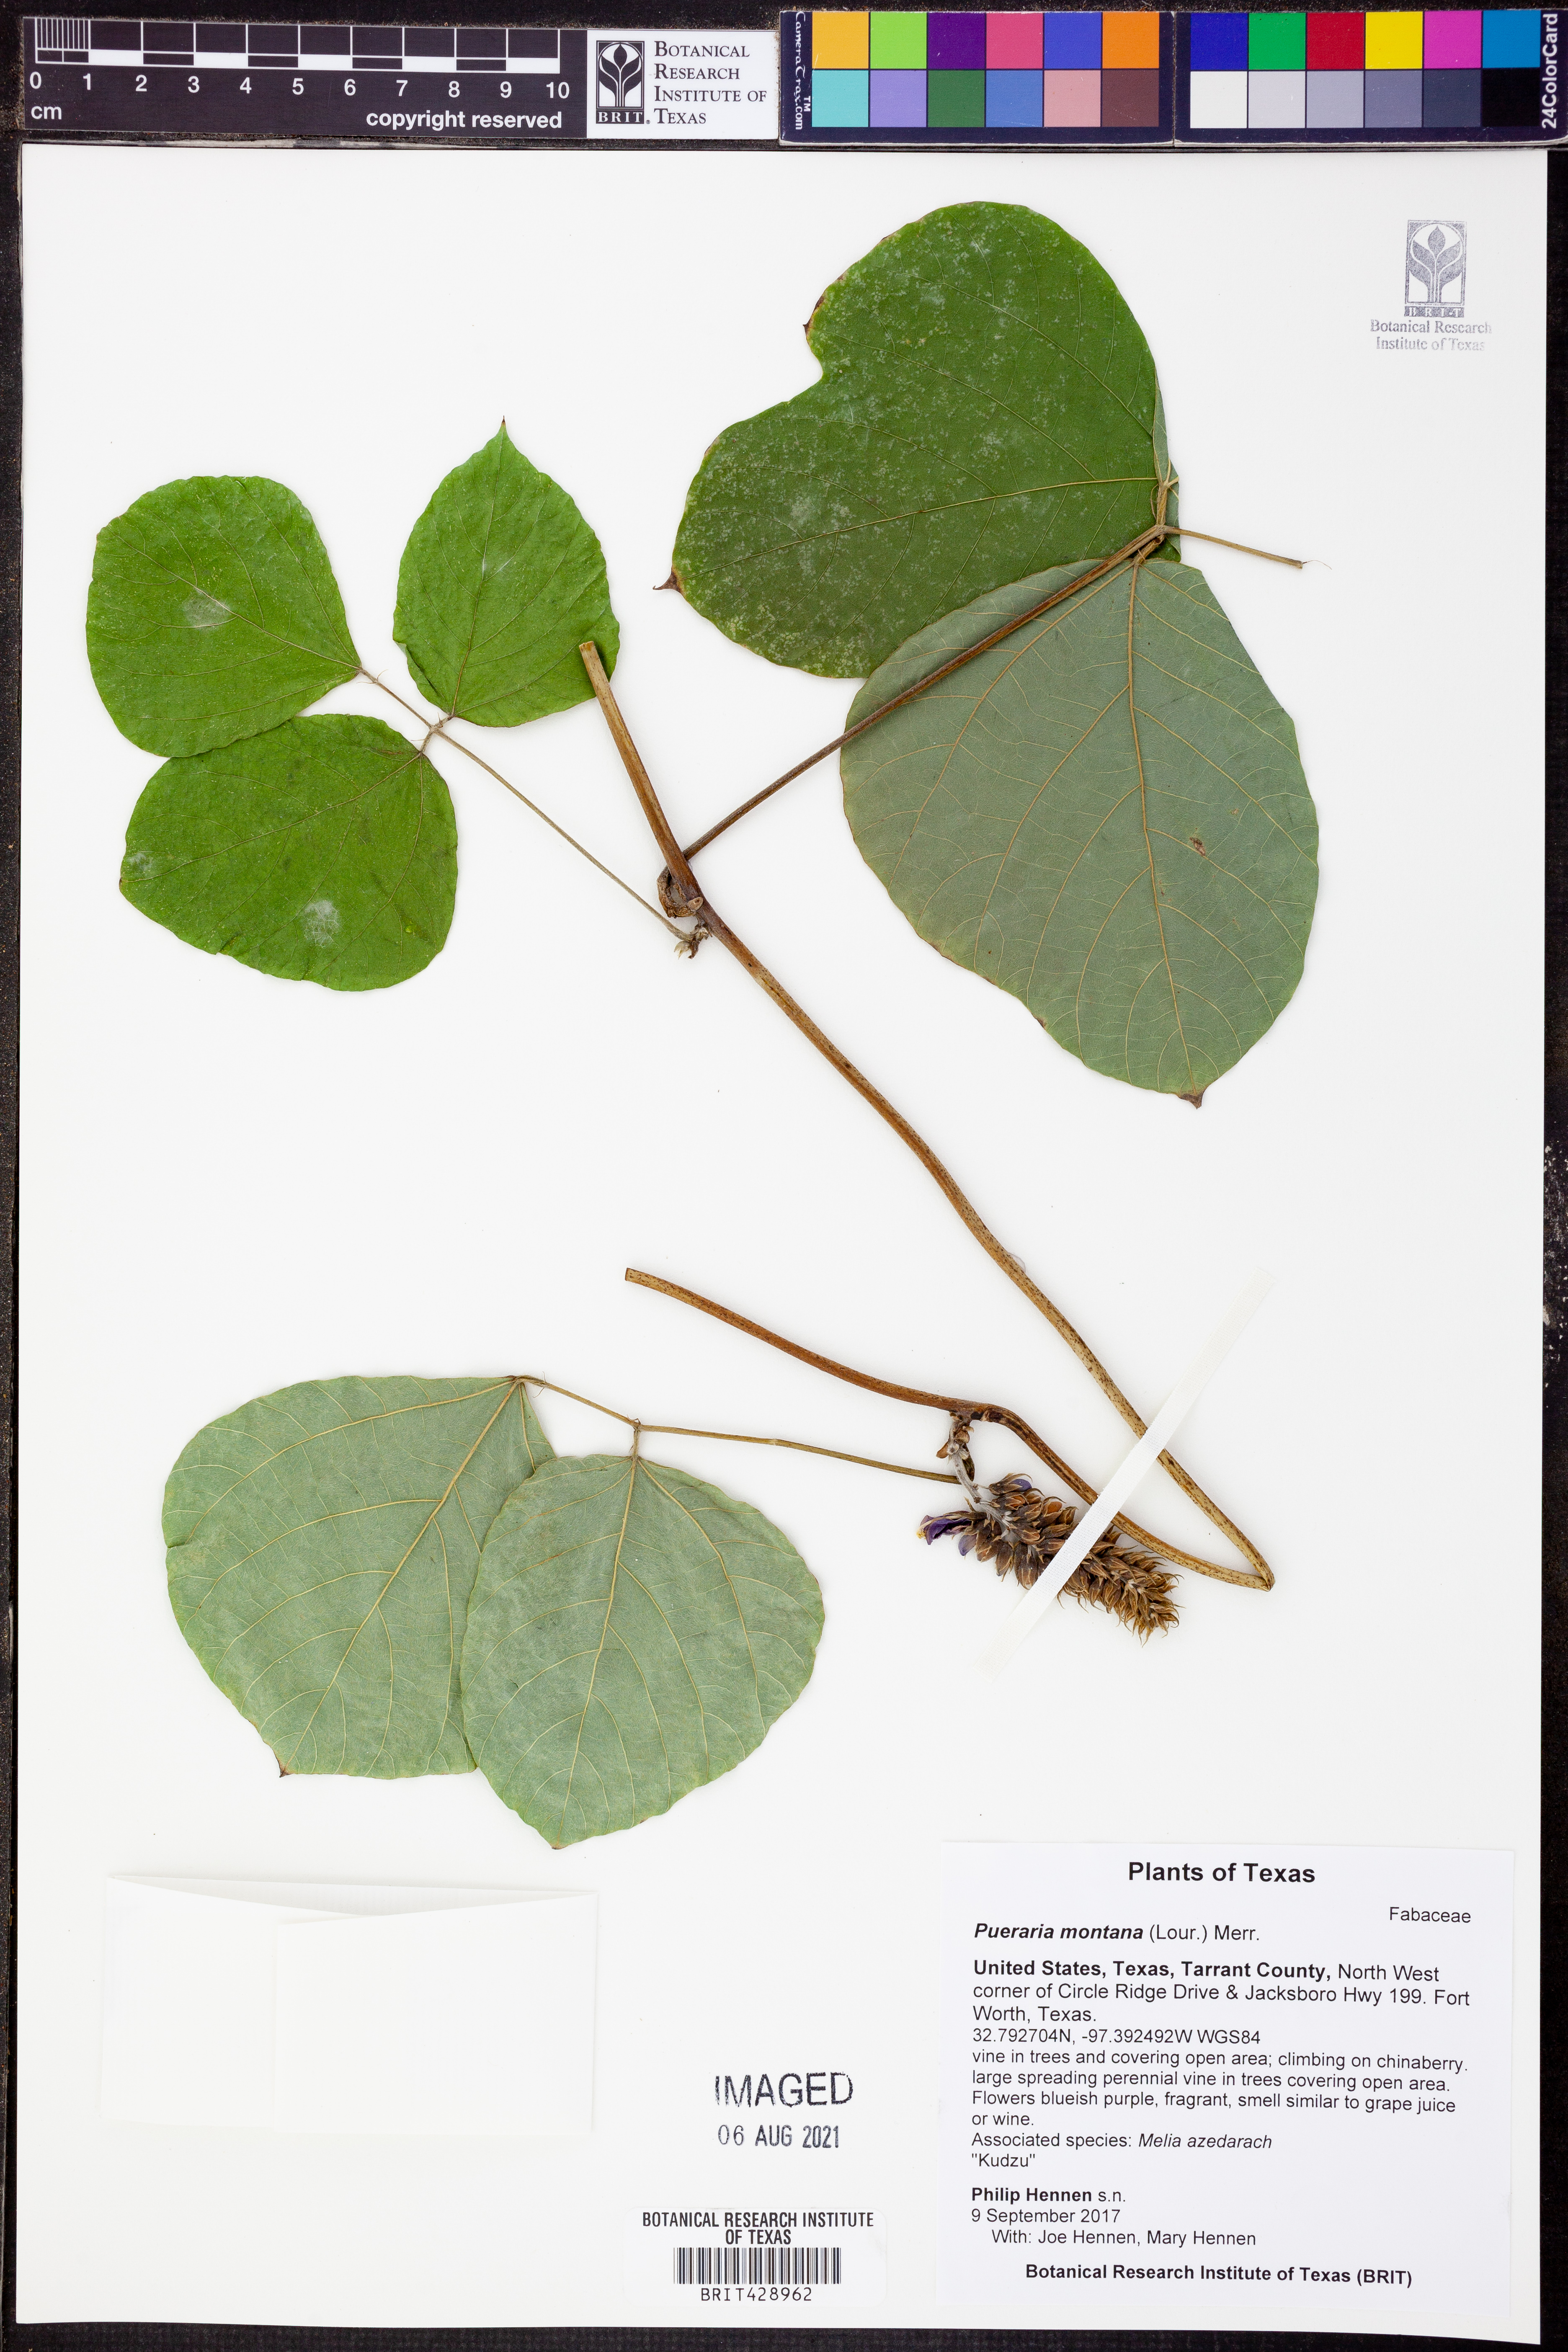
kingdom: Plantae
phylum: Tracheophyta
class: Magnoliopsida
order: Fabales
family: Fabaceae
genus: Pueraria
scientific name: Pueraria montana
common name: Kudzu
